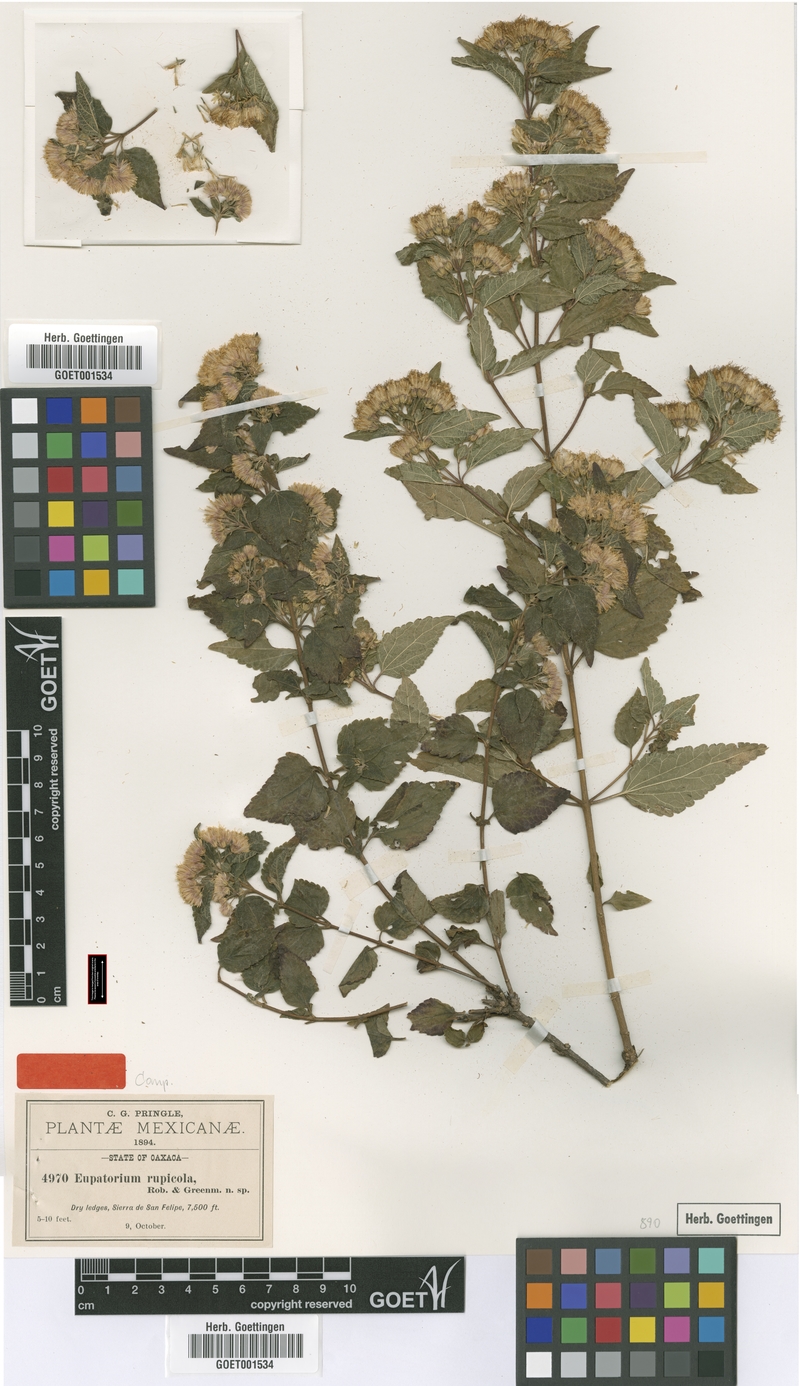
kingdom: Plantae
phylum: Tracheophyta
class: Magnoliopsida
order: Asterales
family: Asteraceae
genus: Ageratina
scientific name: Ageratina rupicola
